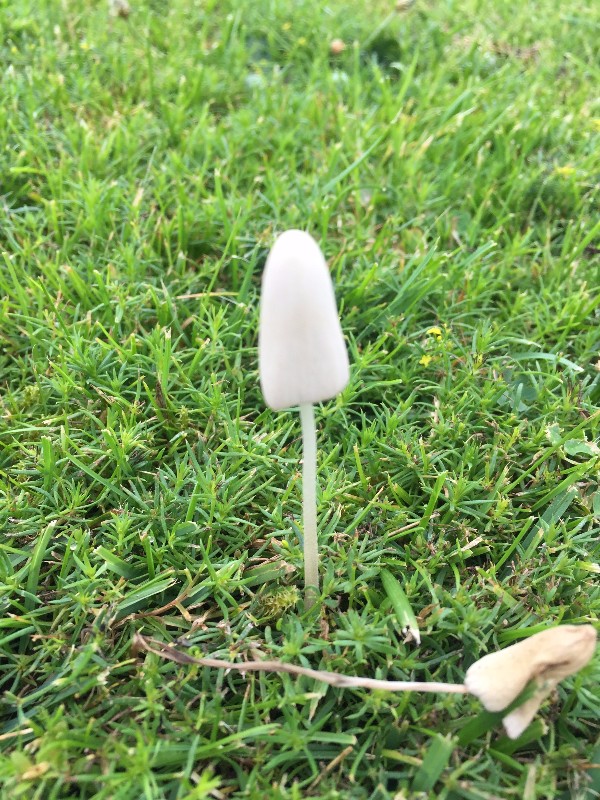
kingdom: Fungi
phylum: Basidiomycota
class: Agaricomycetes
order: Agaricales
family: Bolbitiaceae
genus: Conocybe
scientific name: Conocybe apala
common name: mælkehvid keglehat
